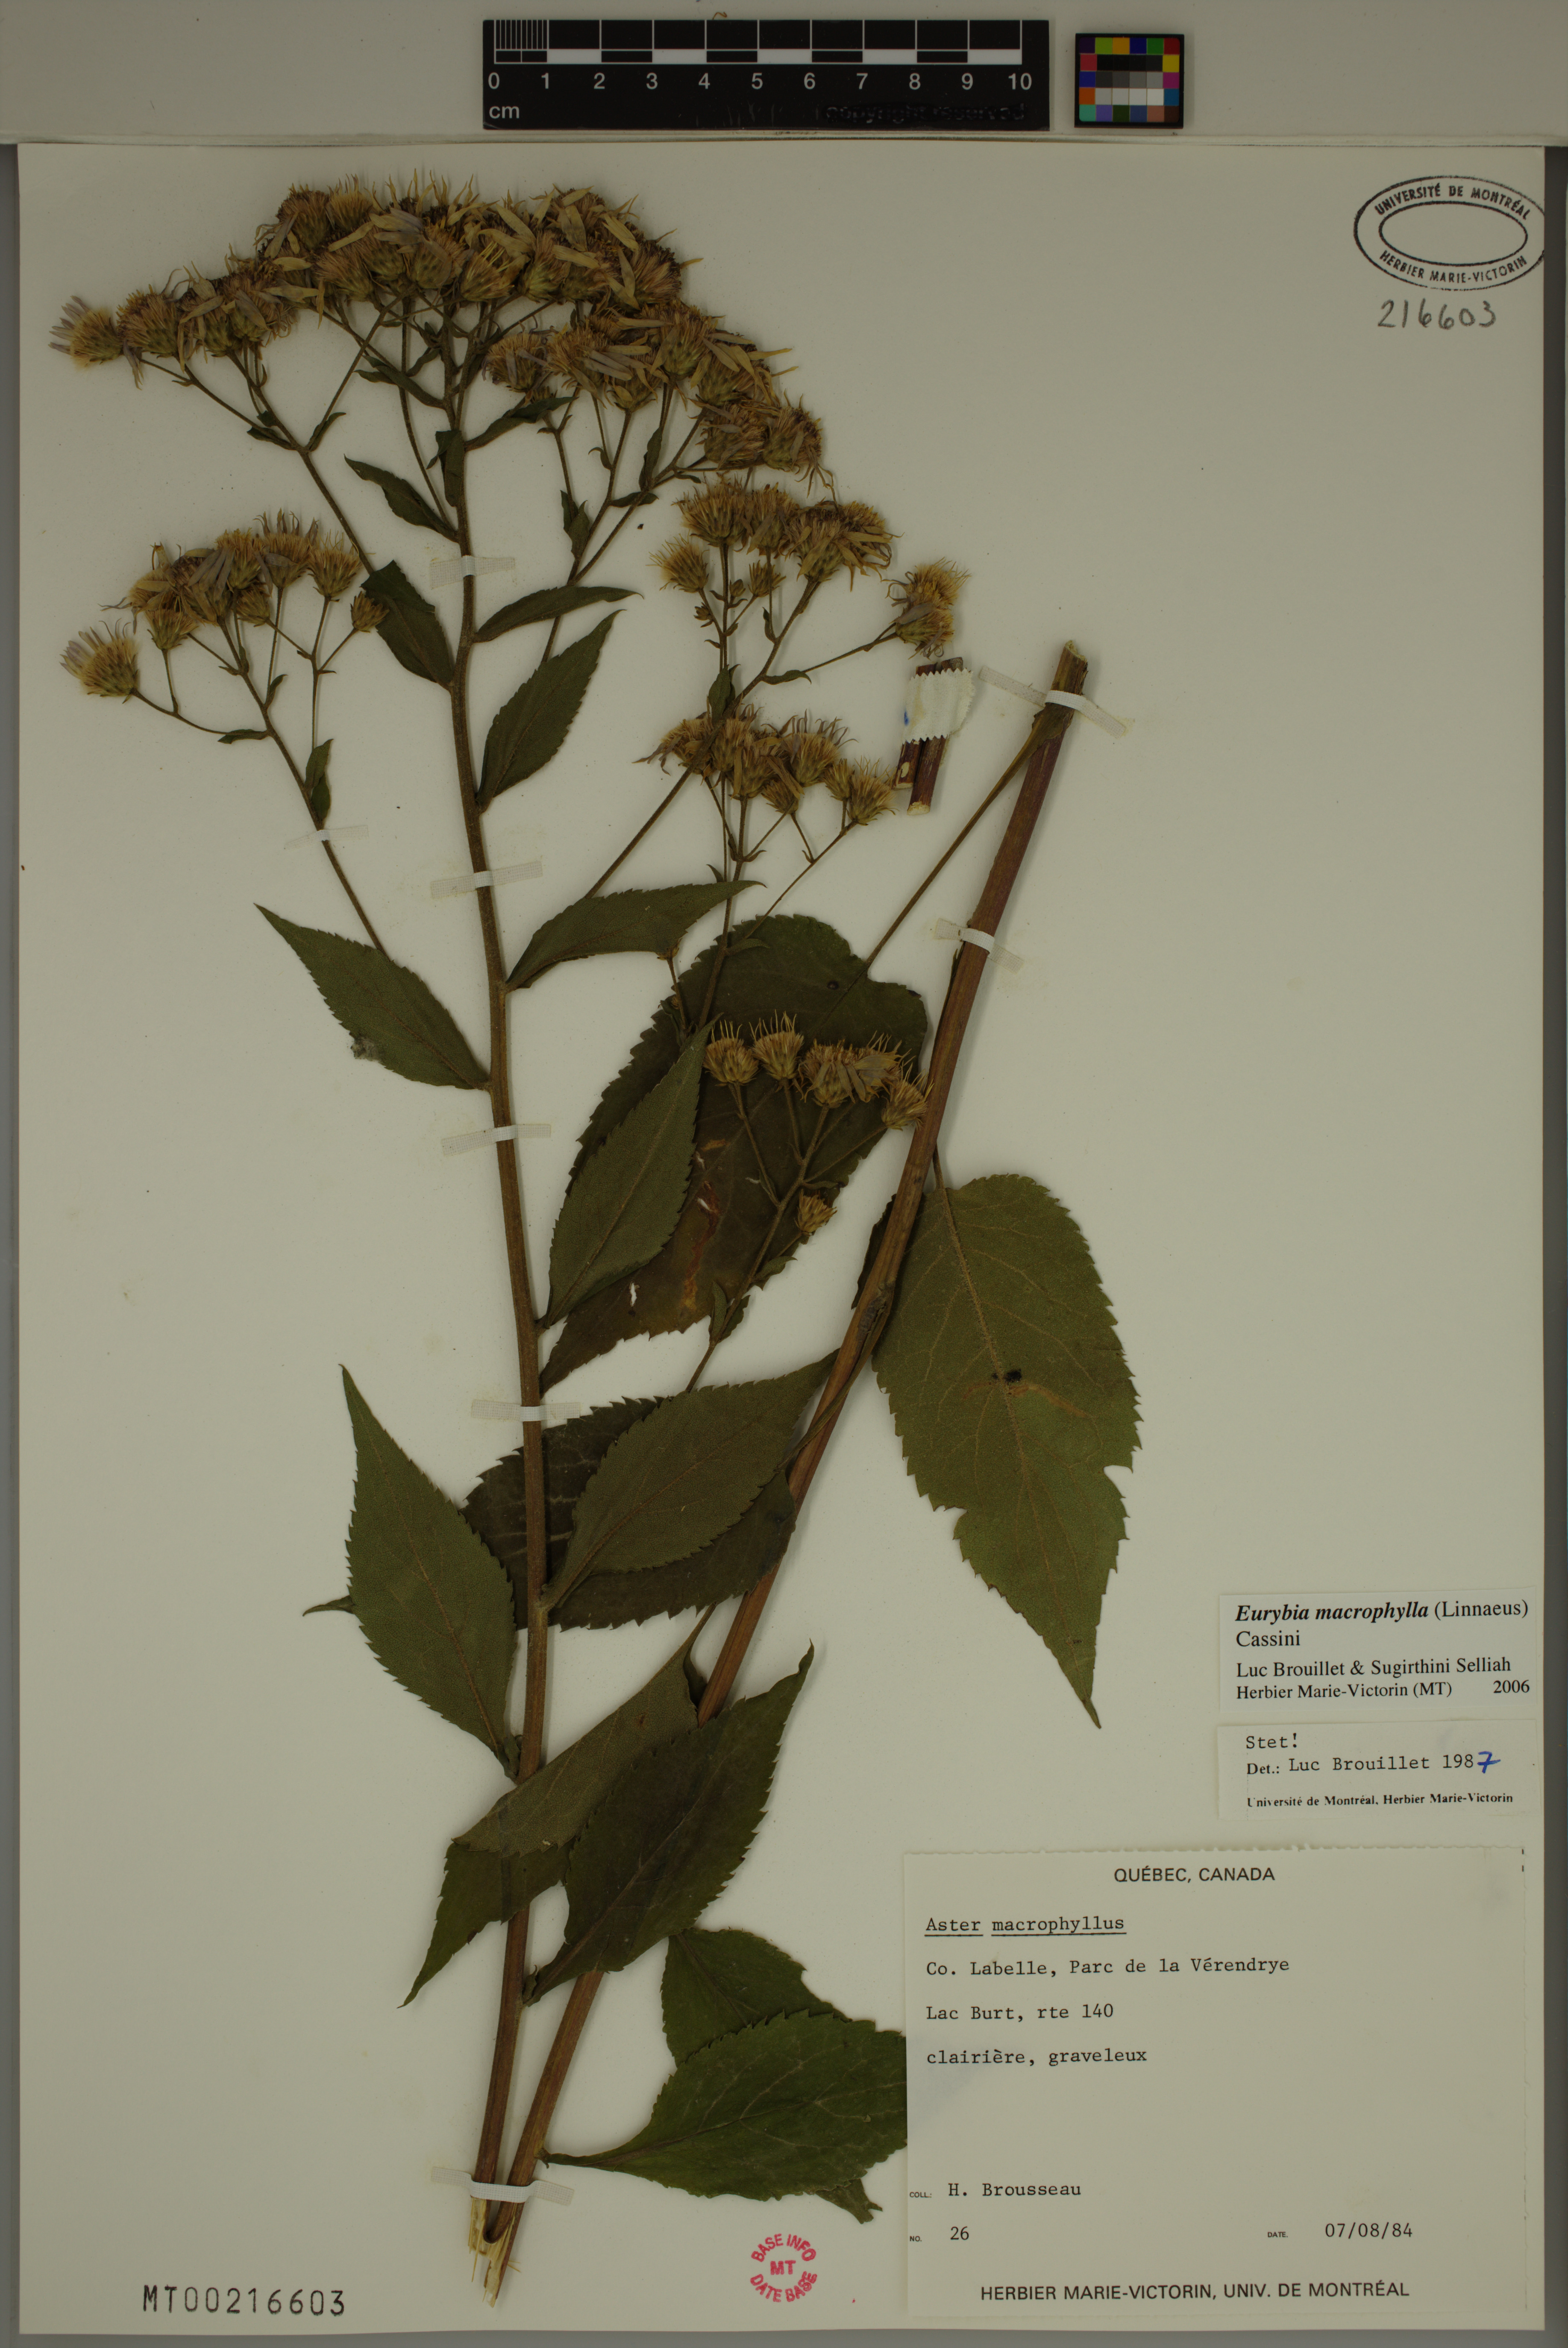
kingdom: Plantae
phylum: Tracheophyta
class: Magnoliopsida
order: Asterales
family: Asteraceae
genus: Eurybia
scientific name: Eurybia macrophylla
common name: Big-leaved aster
